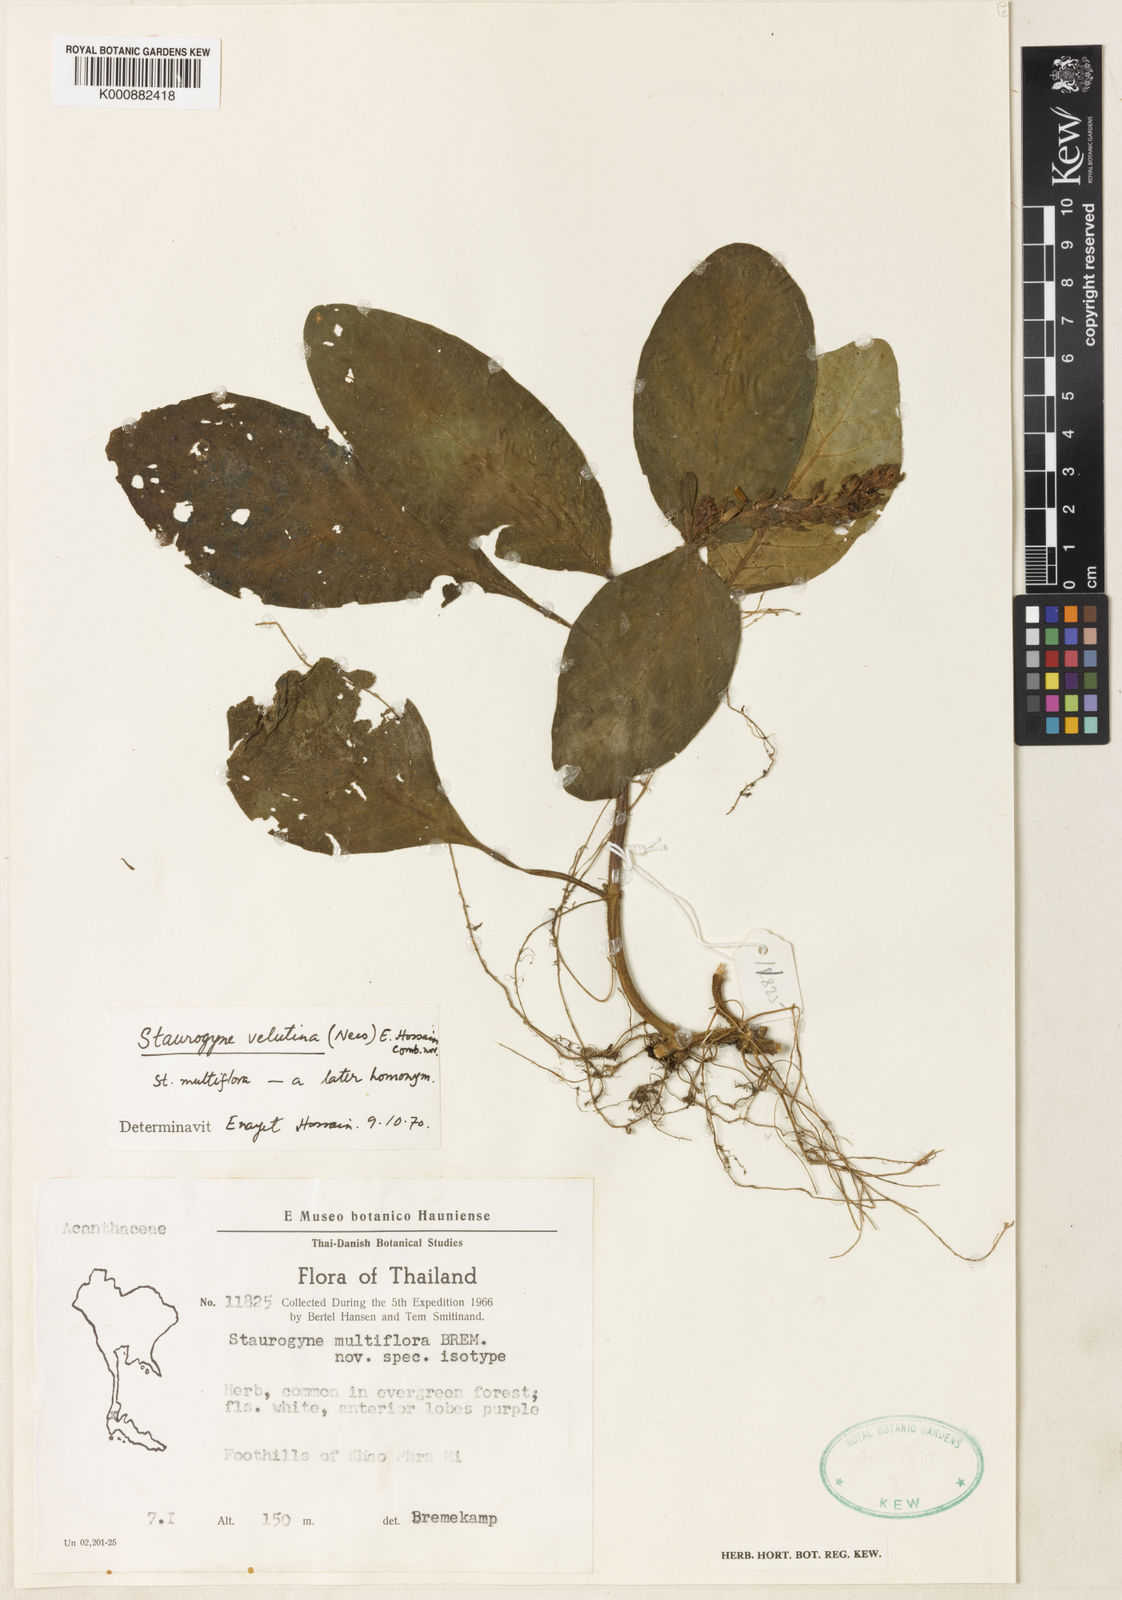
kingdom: Plantae
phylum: Tracheophyta
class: Magnoliopsida
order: Lamiales
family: Acanthaceae
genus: Staurogyne
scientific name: Staurogyne
